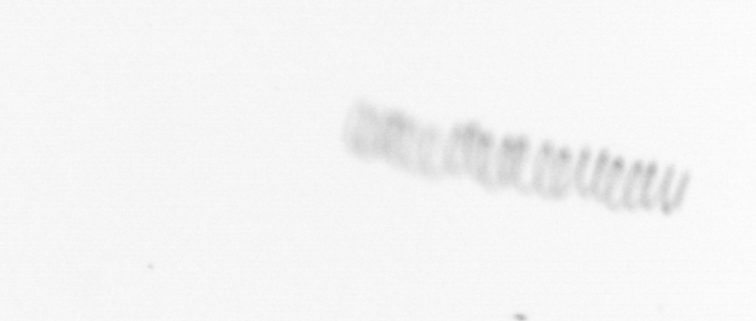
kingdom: Chromista
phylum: Ochrophyta
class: Bacillariophyceae
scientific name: Bacillariophyceae
